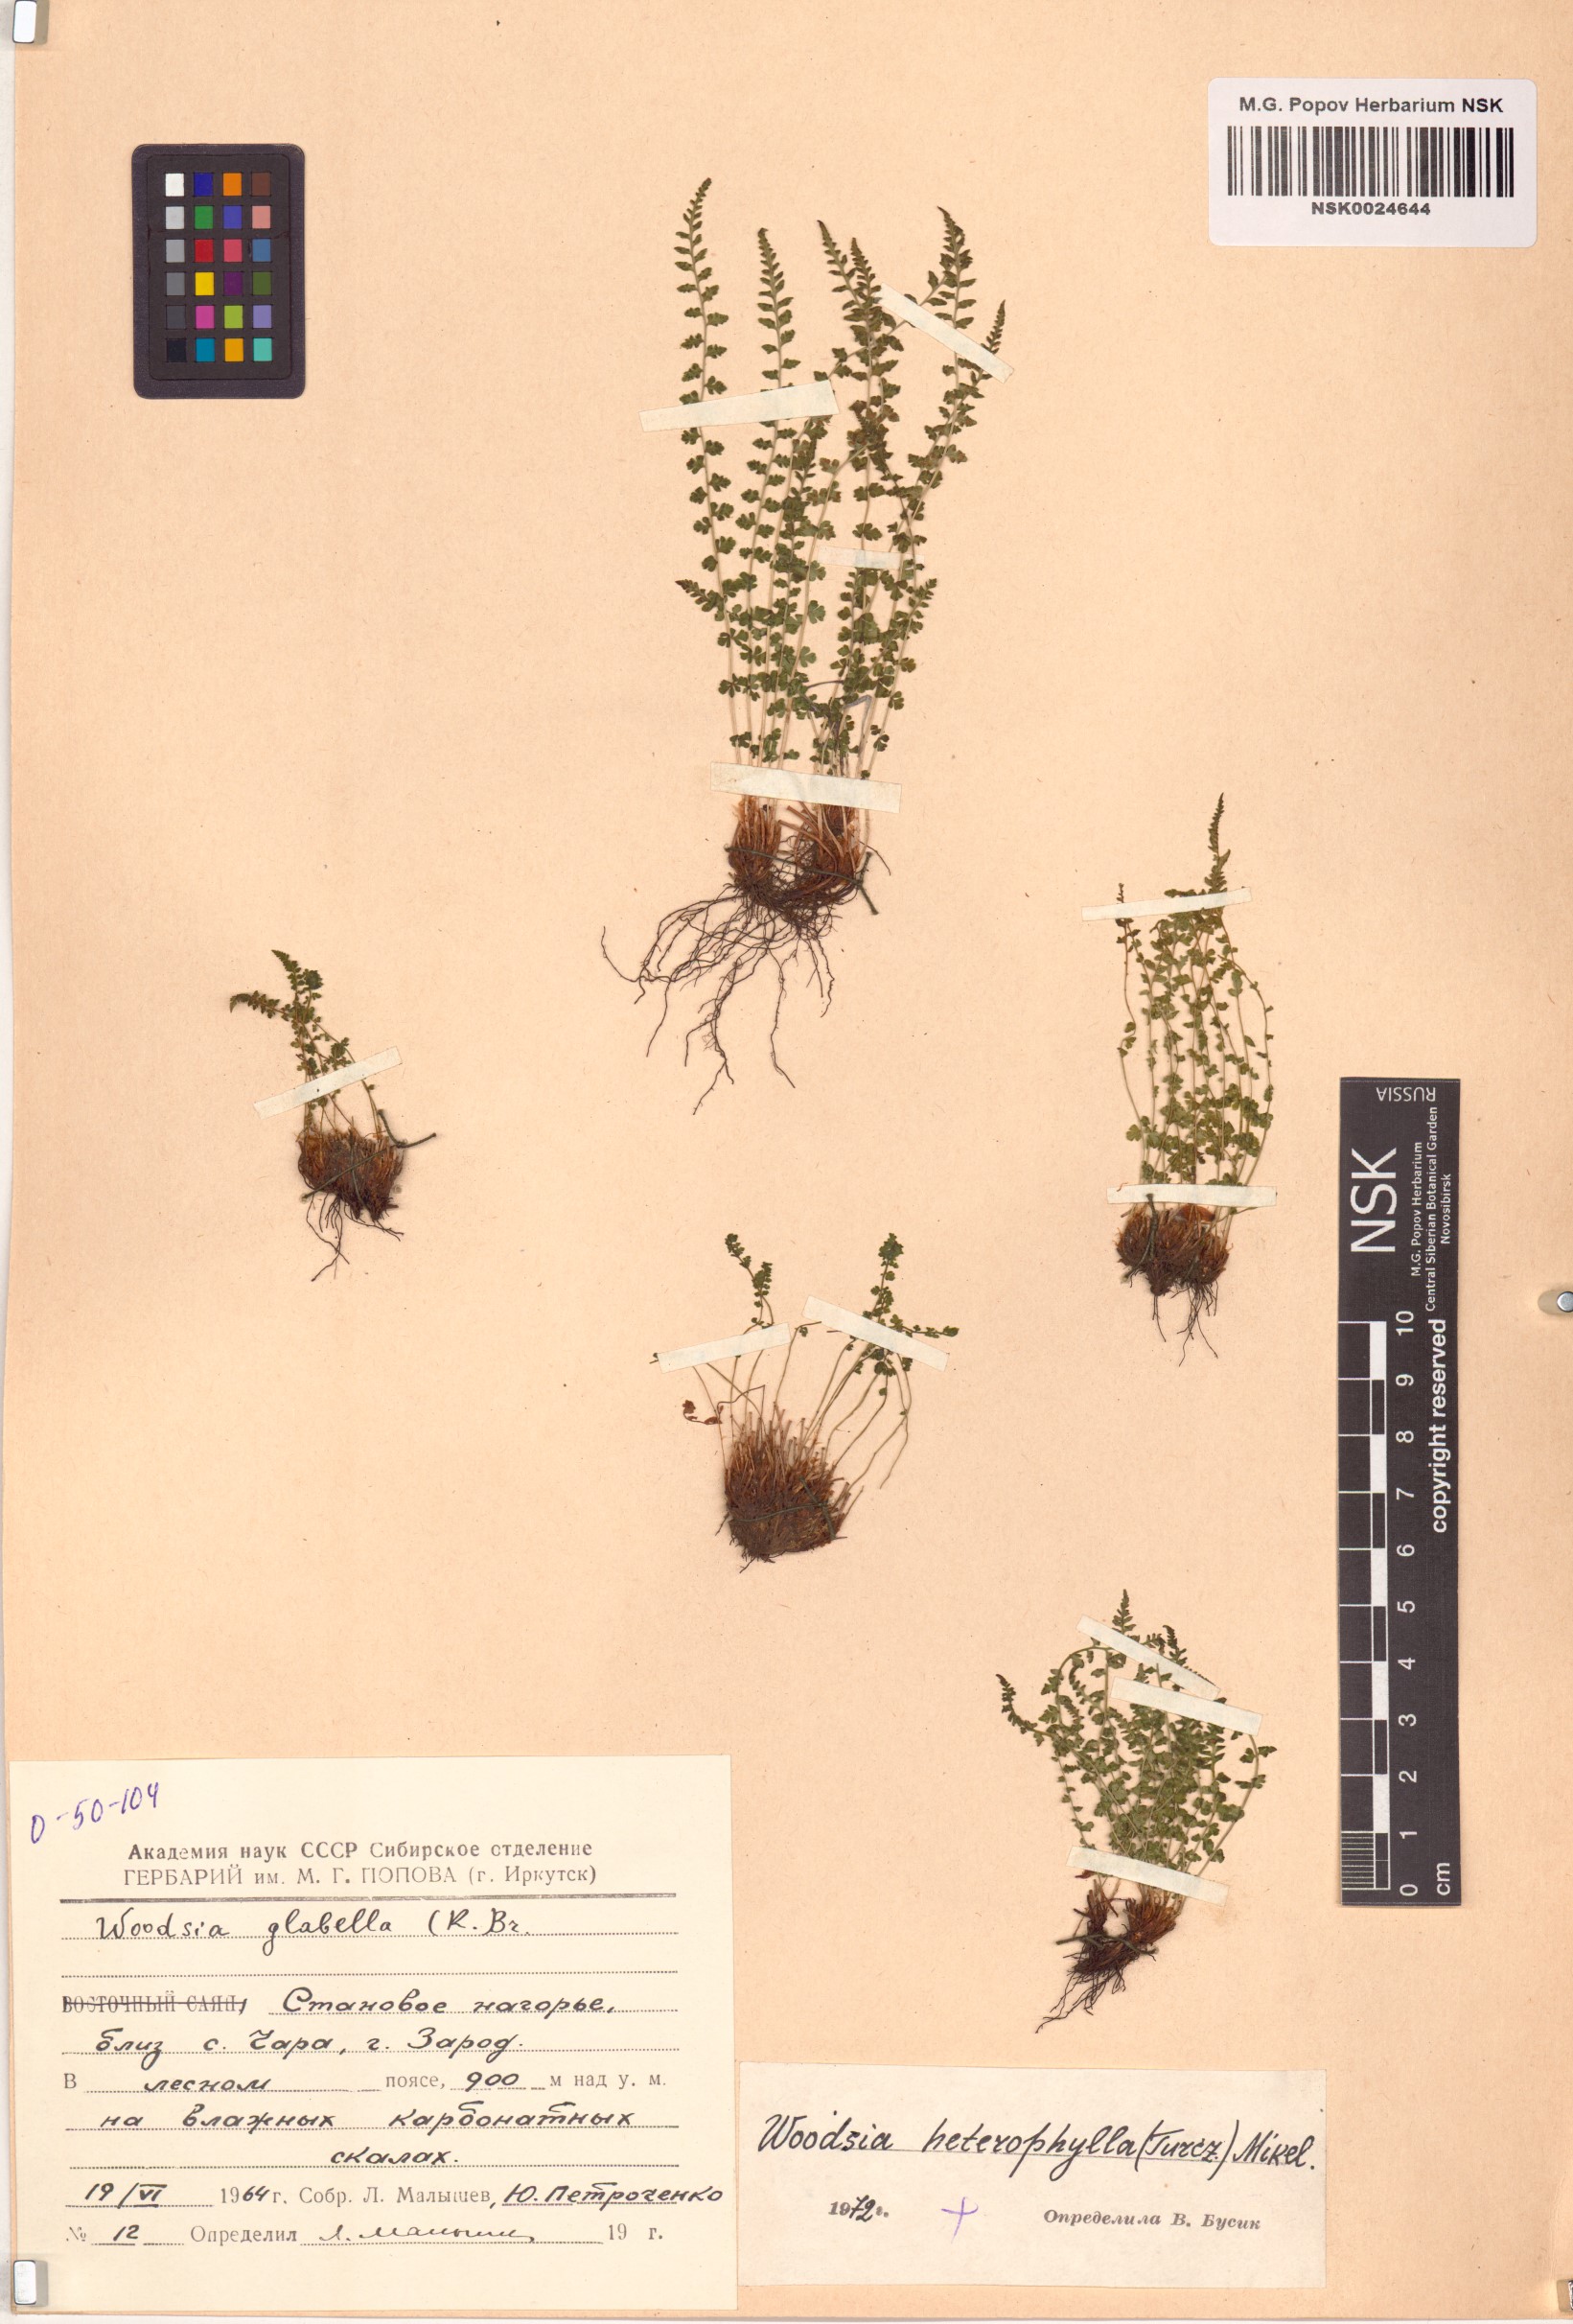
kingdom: Plantae
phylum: Tracheophyta
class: Polypodiopsida
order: Polypodiales
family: Woodsiaceae
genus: Woodsia
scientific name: Woodsia pulchella
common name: Graceful woodsia
